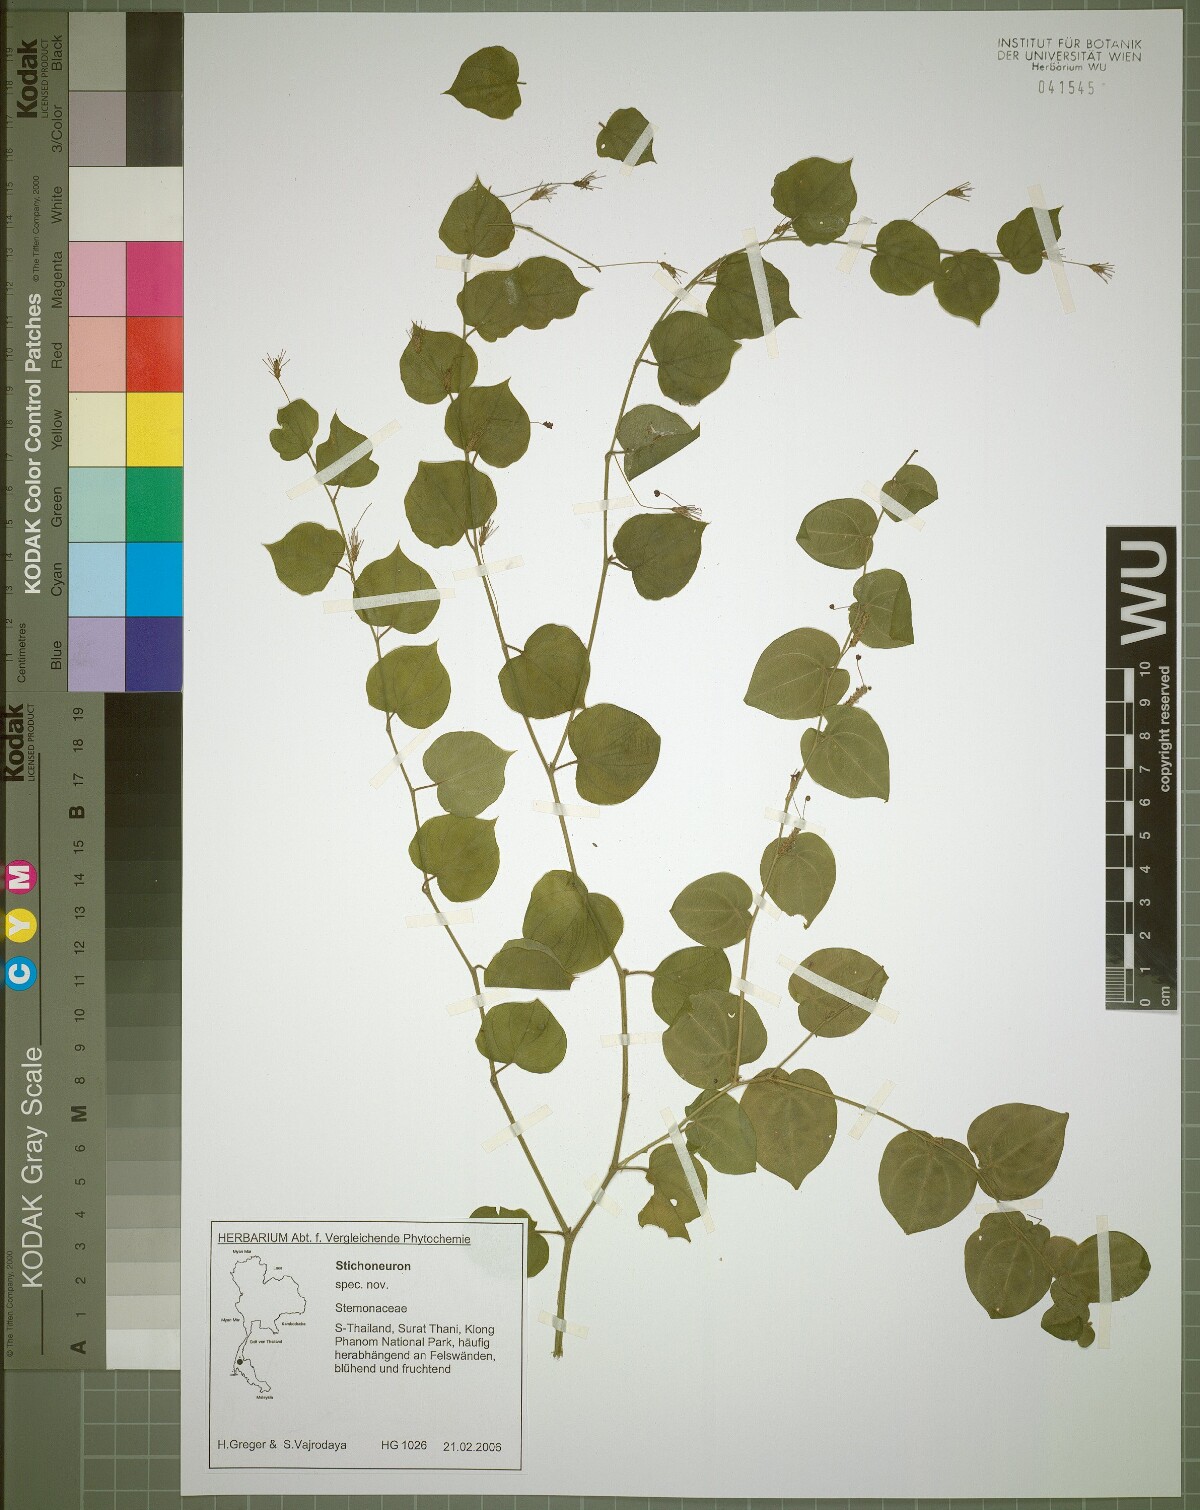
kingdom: Plantae
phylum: Tracheophyta
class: Liliopsida
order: Pandanales
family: Stemonaceae
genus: Stichoneuron
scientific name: Stichoneuron calcicola
